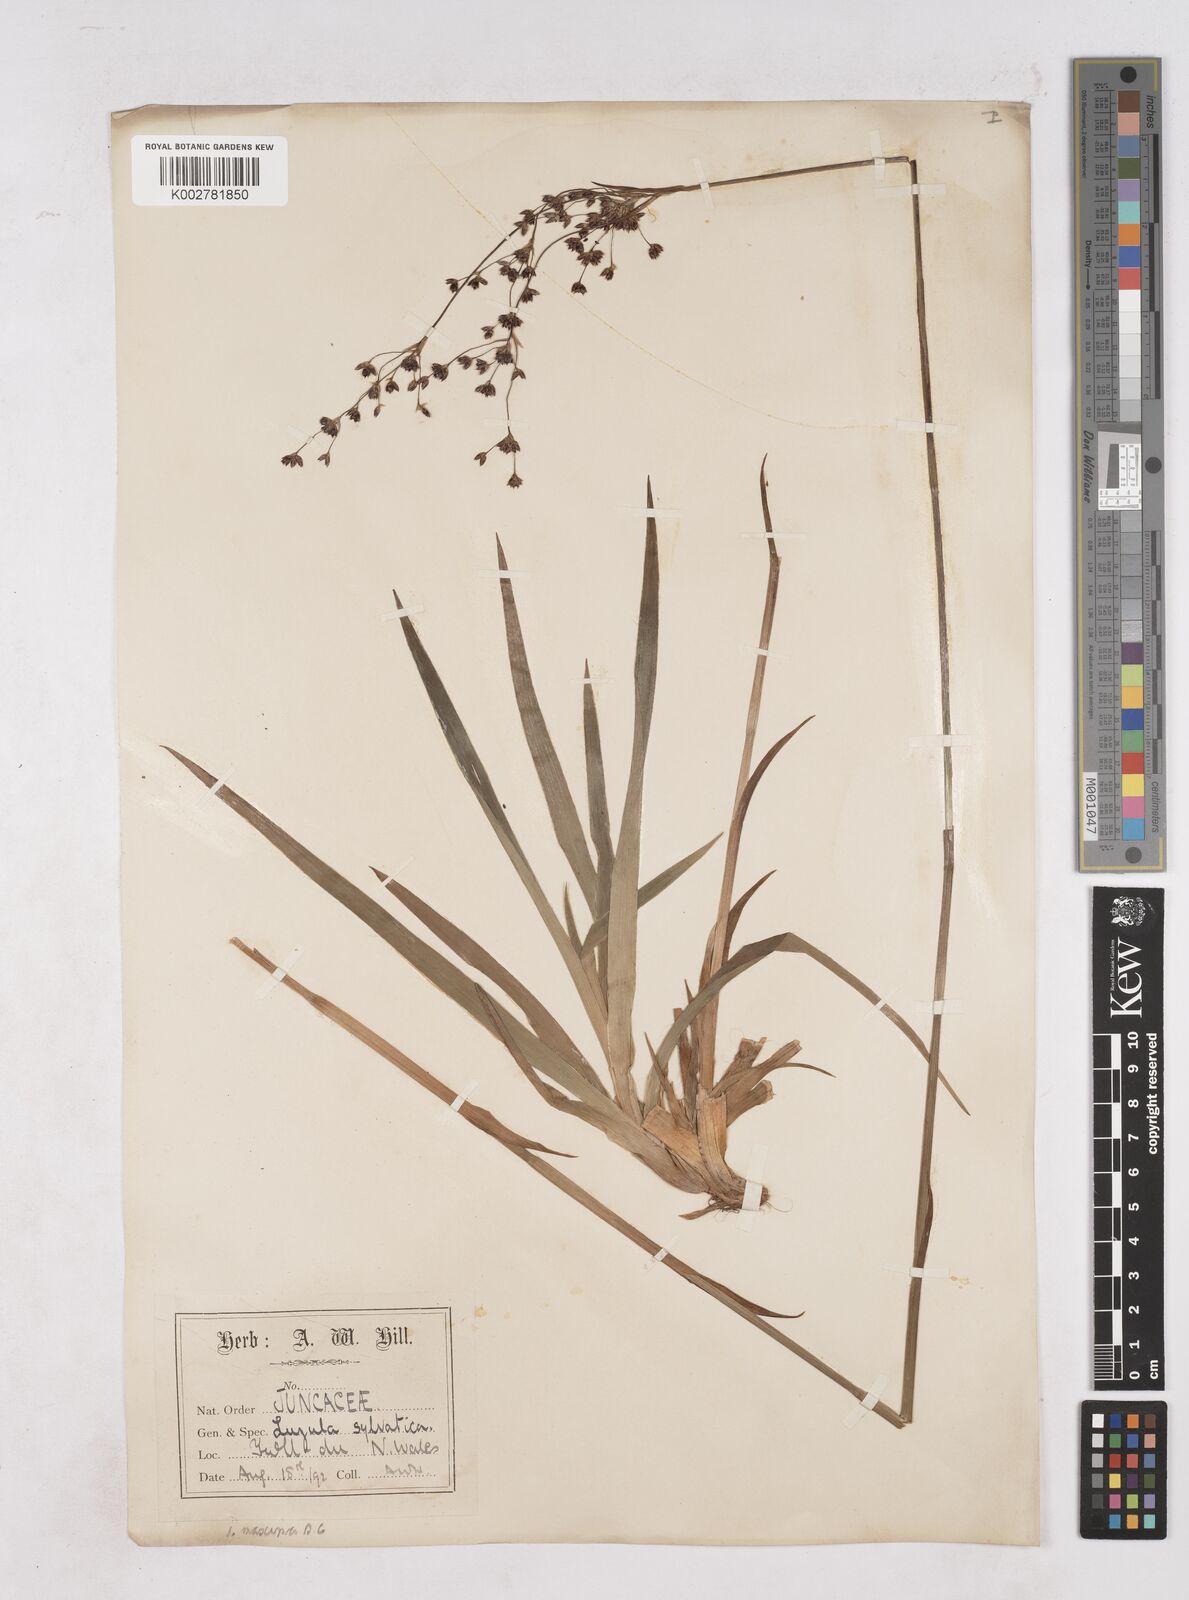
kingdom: Plantae
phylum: Tracheophyta
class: Liliopsida
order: Poales
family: Juncaceae
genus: Luzula
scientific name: Luzula sylvatica
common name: Great wood-rush
